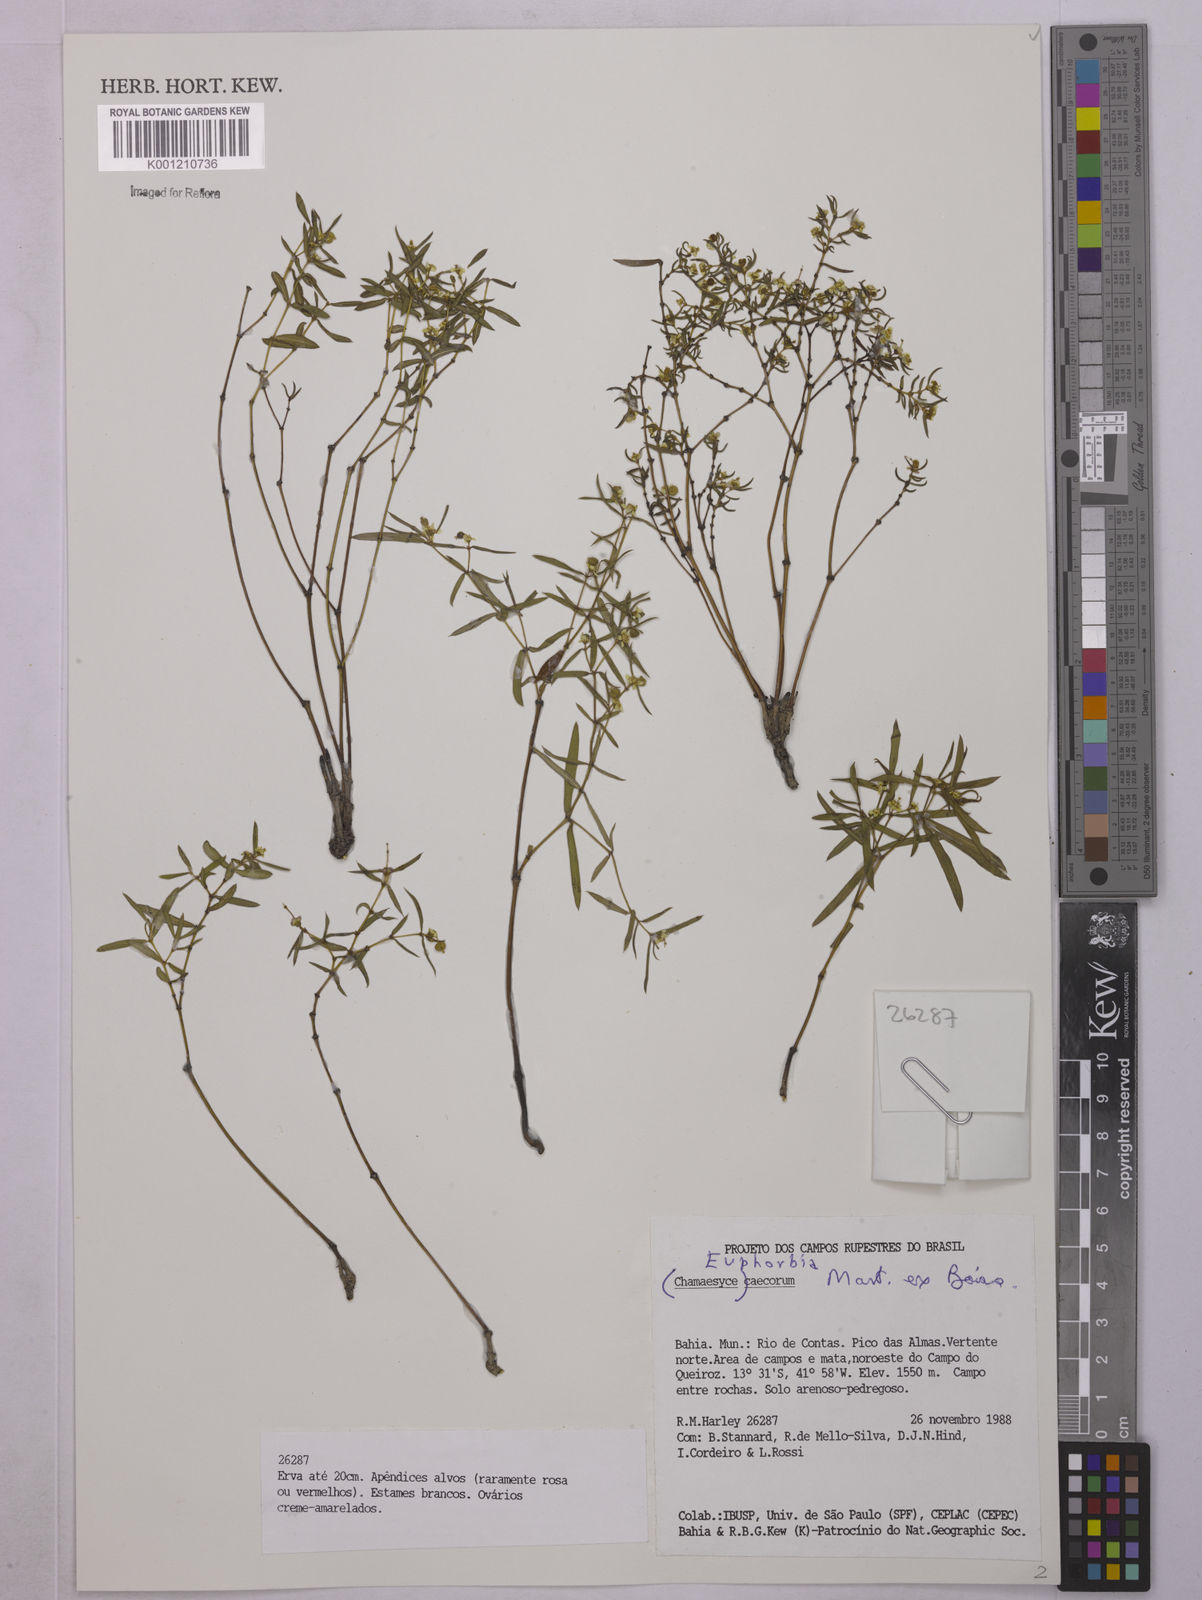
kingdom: Plantae
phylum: Tracheophyta
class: Magnoliopsida
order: Malpighiales
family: Euphorbiaceae
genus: Euphorbia
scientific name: Euphorbia potentilloides
